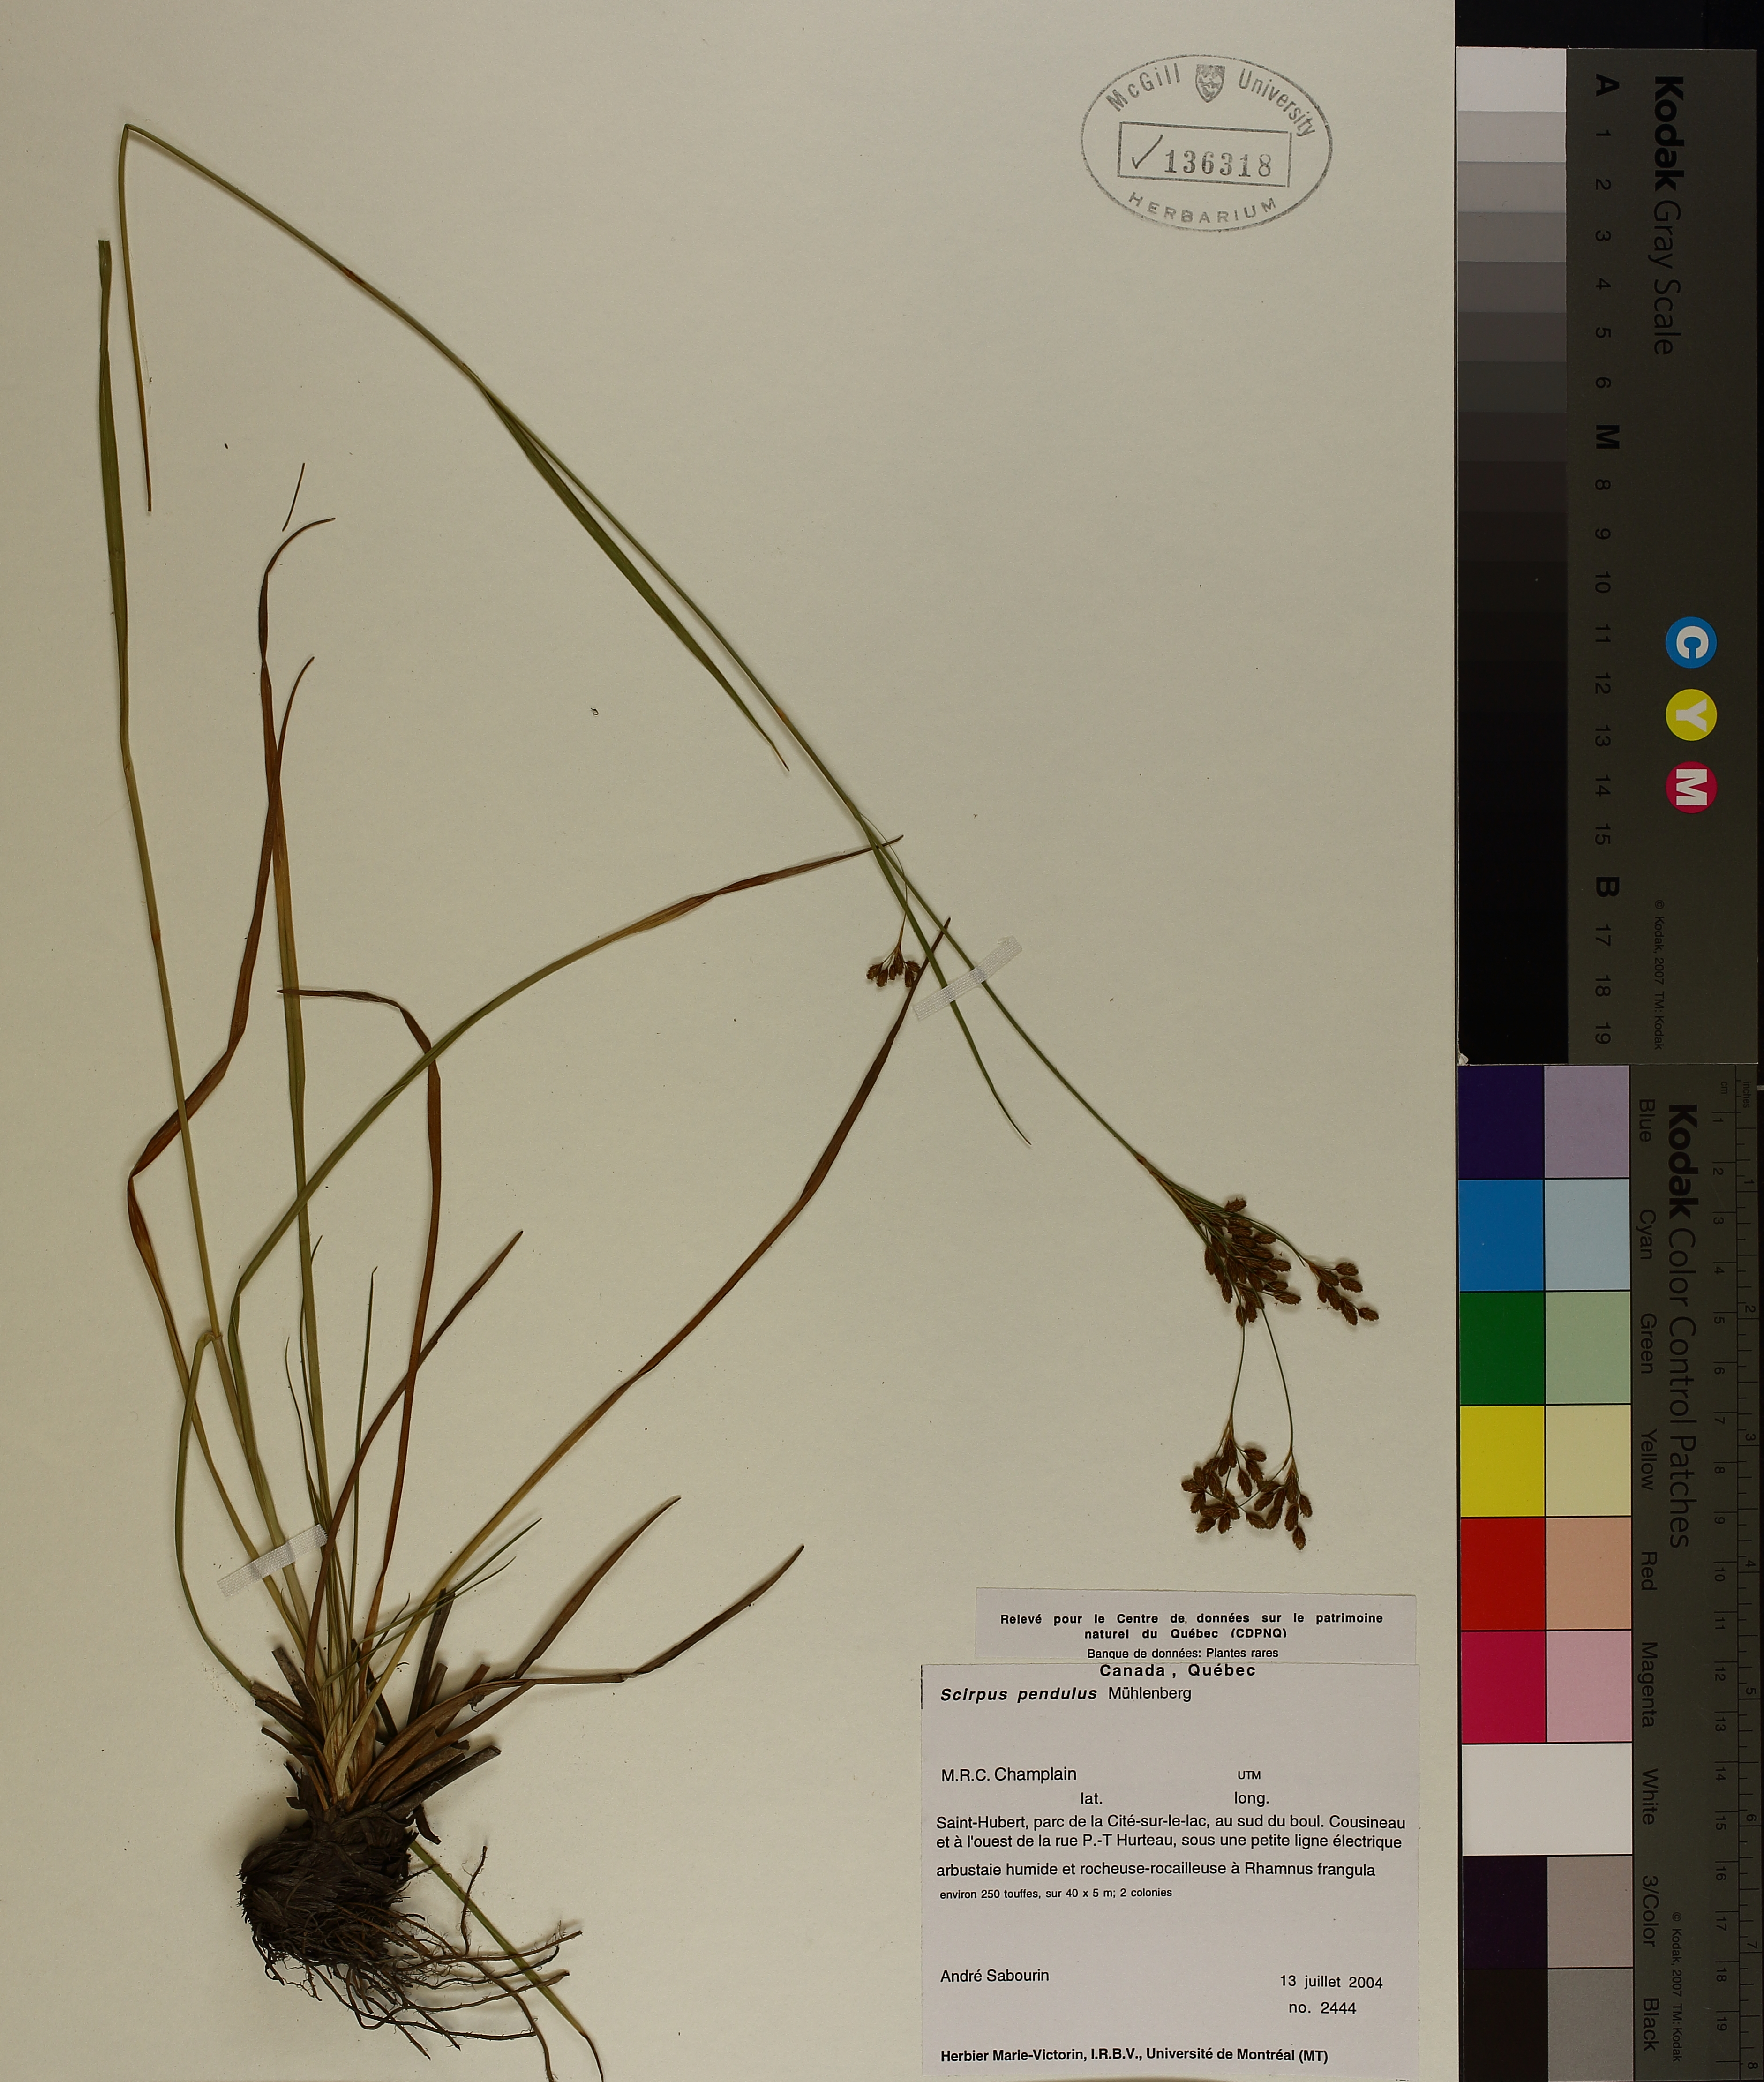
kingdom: Plantae
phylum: Tracheophyta
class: Liliopsida
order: Poales
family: Cyperaceae
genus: Scirpus
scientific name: Scirpus pendulus
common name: Nodding bulrush
